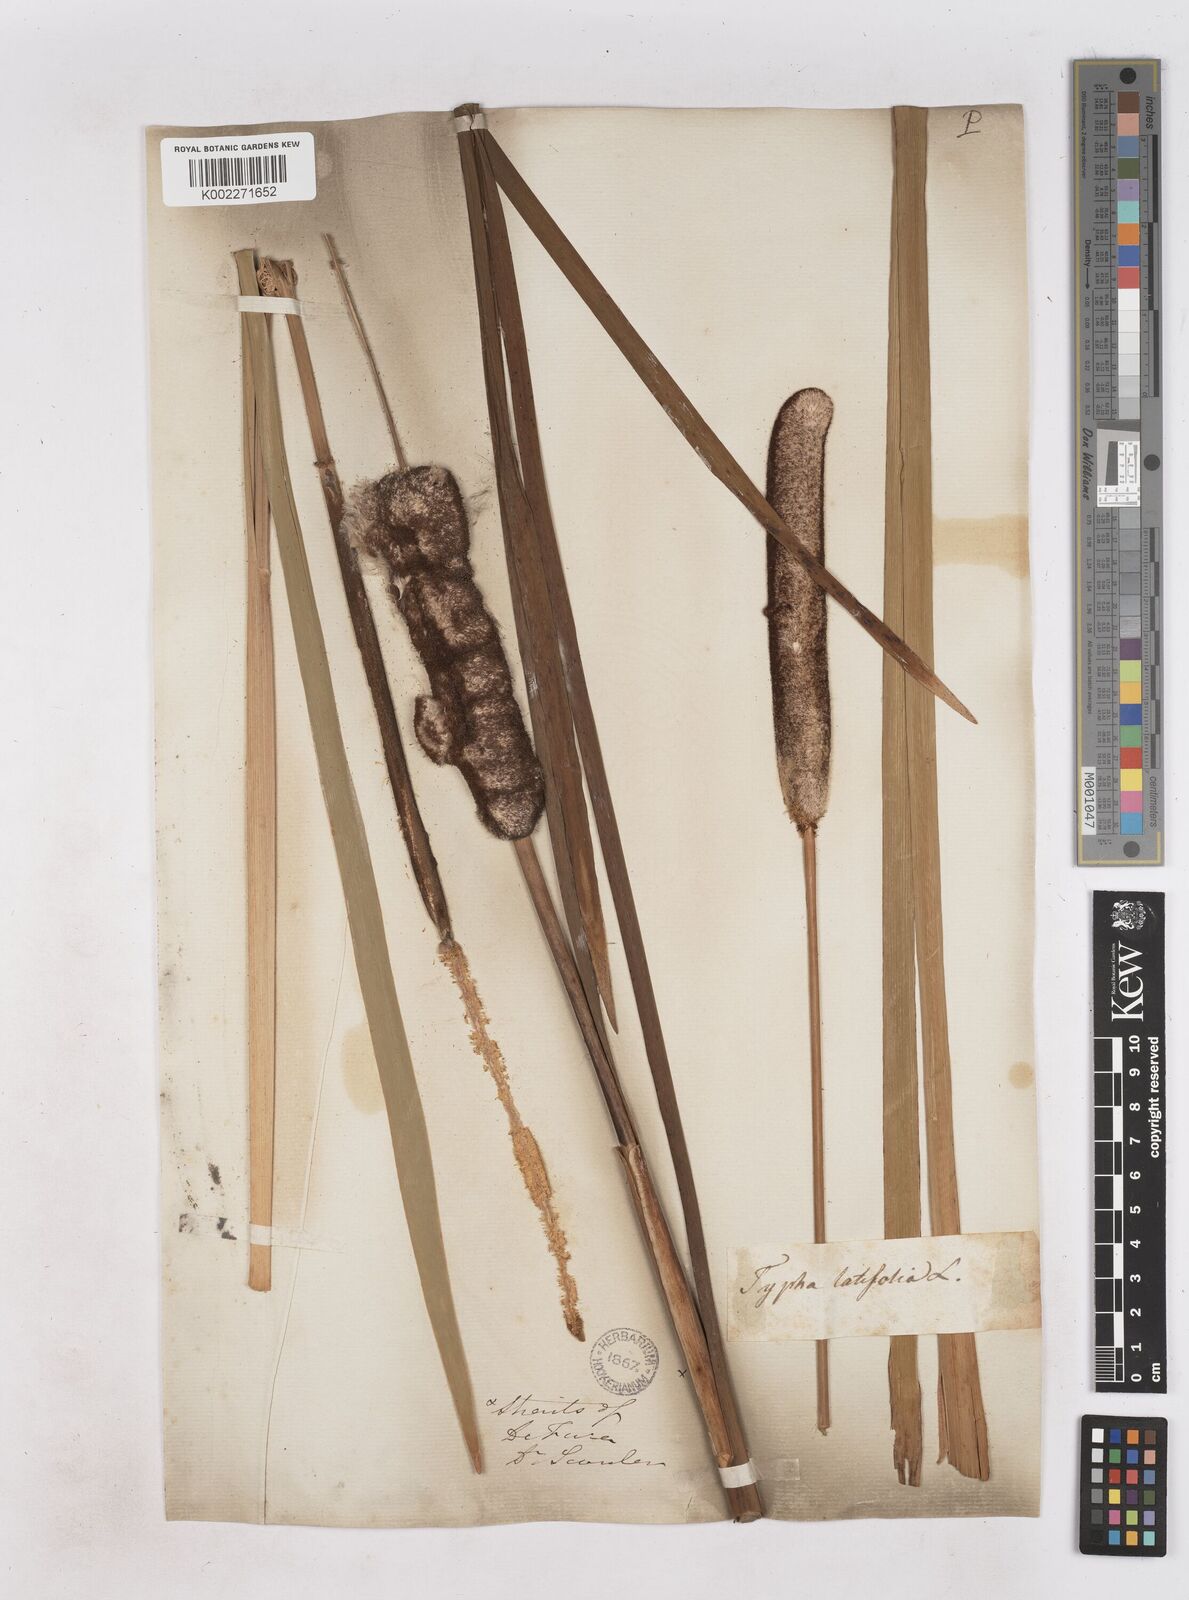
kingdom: Plantae
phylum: Tracheophyta
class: Liliopsida
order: Poales
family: Typhaceae
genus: Typha
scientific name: Typha latifolia
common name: Broadleaf cattail
